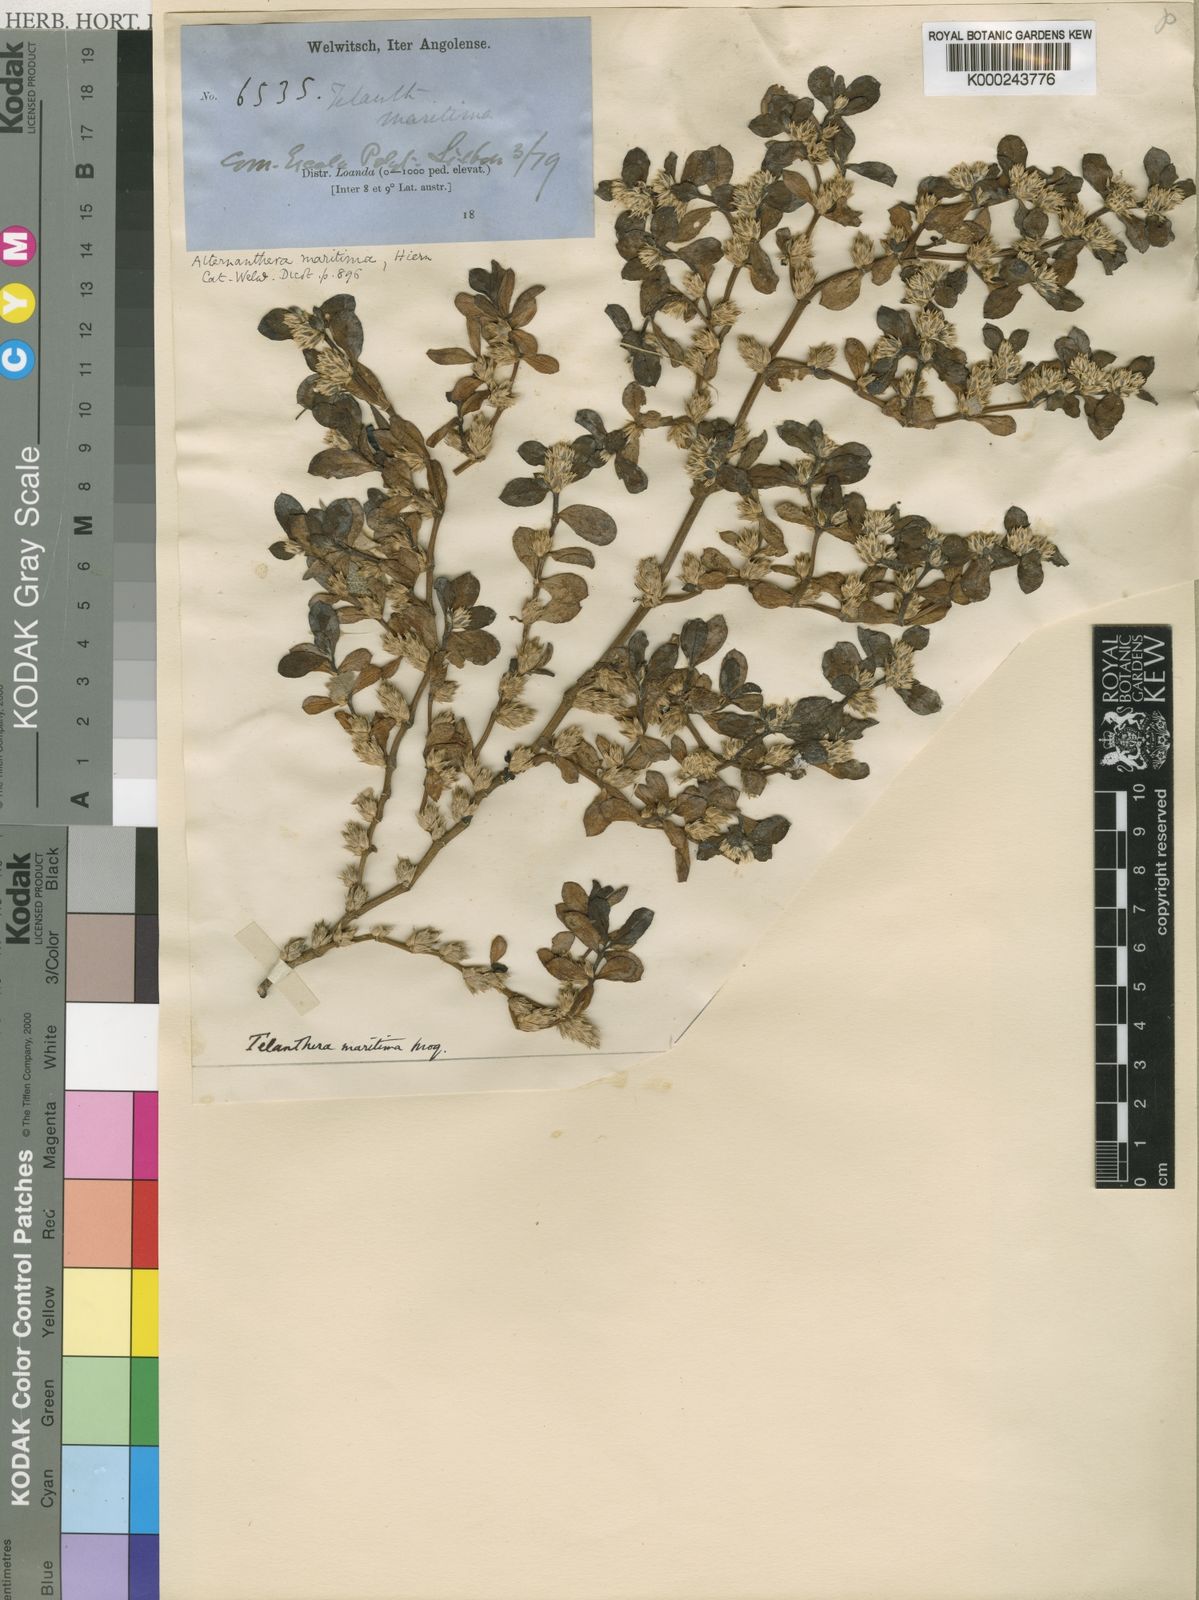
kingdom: Plantae
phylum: Tracheophyta
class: Magnoliopsida
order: Caryophyllales
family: Amaranthaceae
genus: Alternanthera
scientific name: Alternanthera
